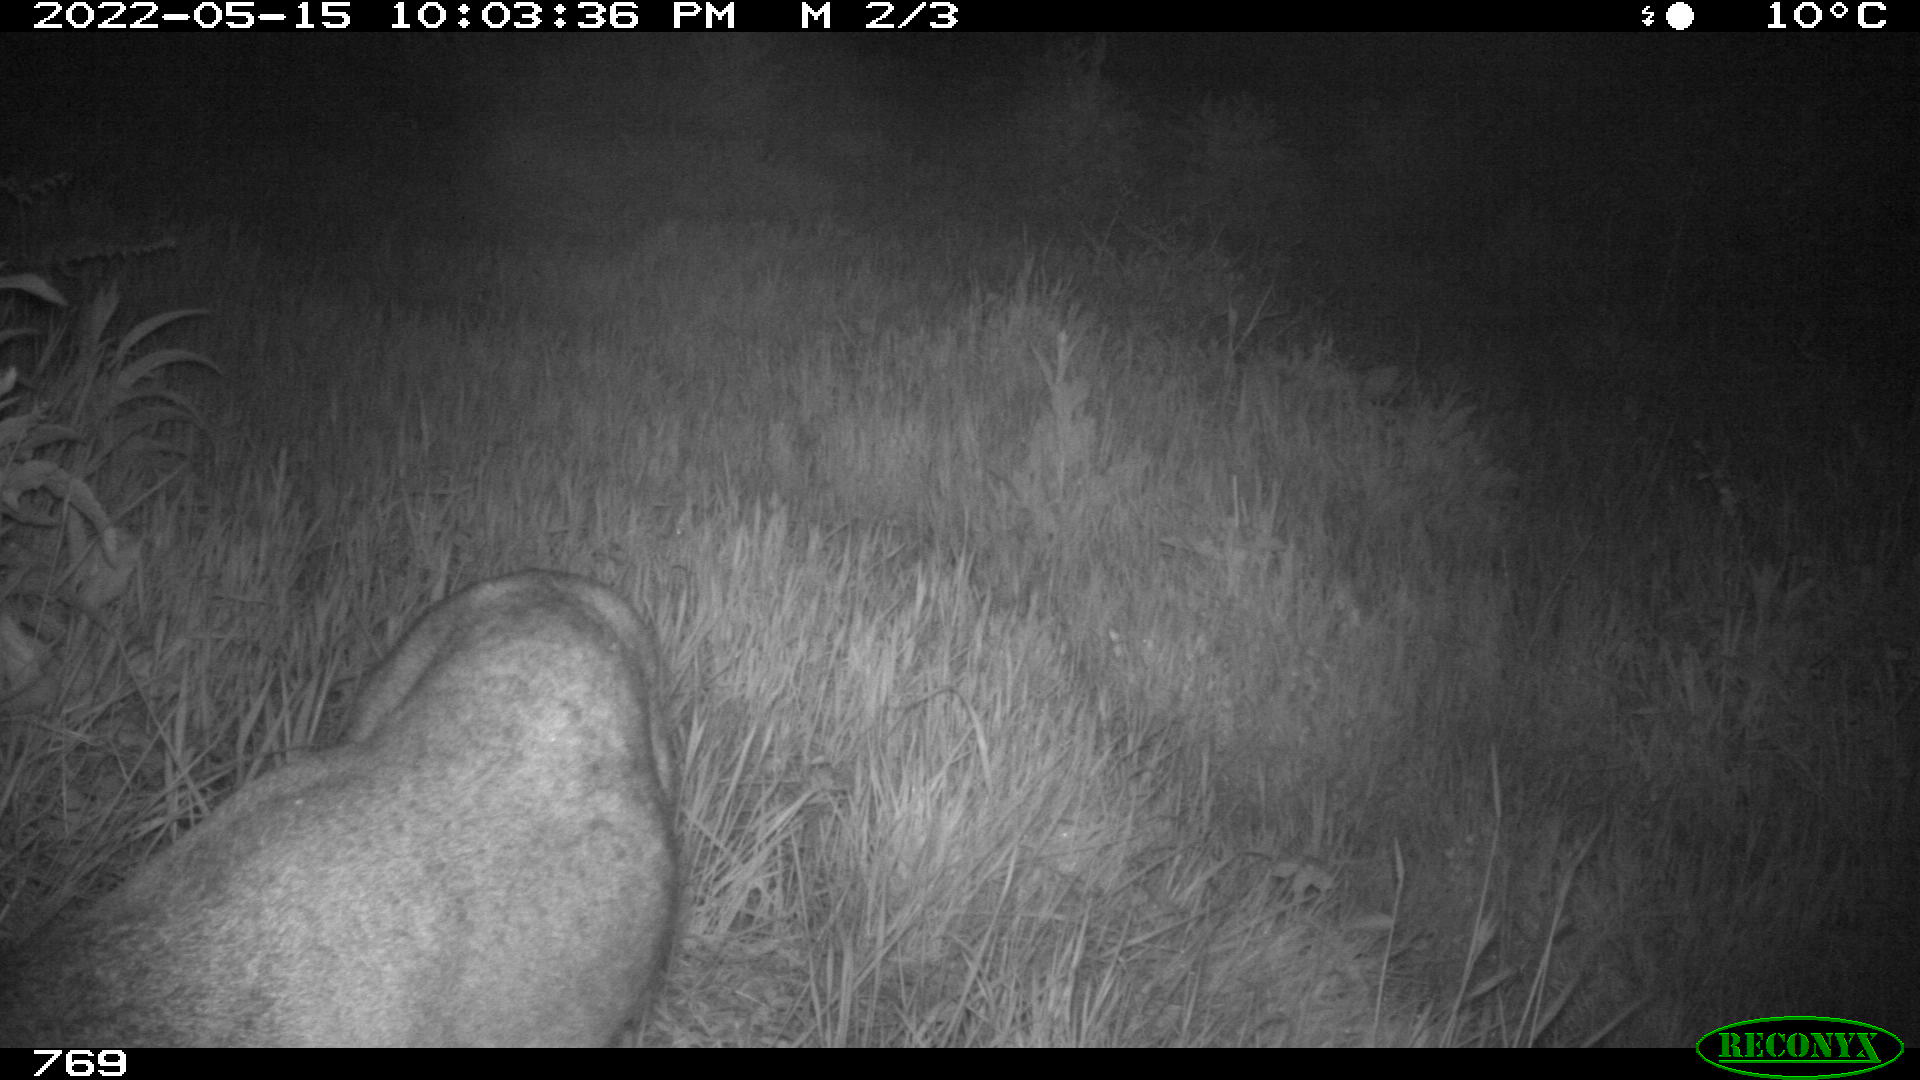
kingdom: Animalia
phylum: Chordata
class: Mammalia
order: Artiodactyla
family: Cervidae
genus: Capreolus
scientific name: Capreolus capreolus
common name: Western roe deer
